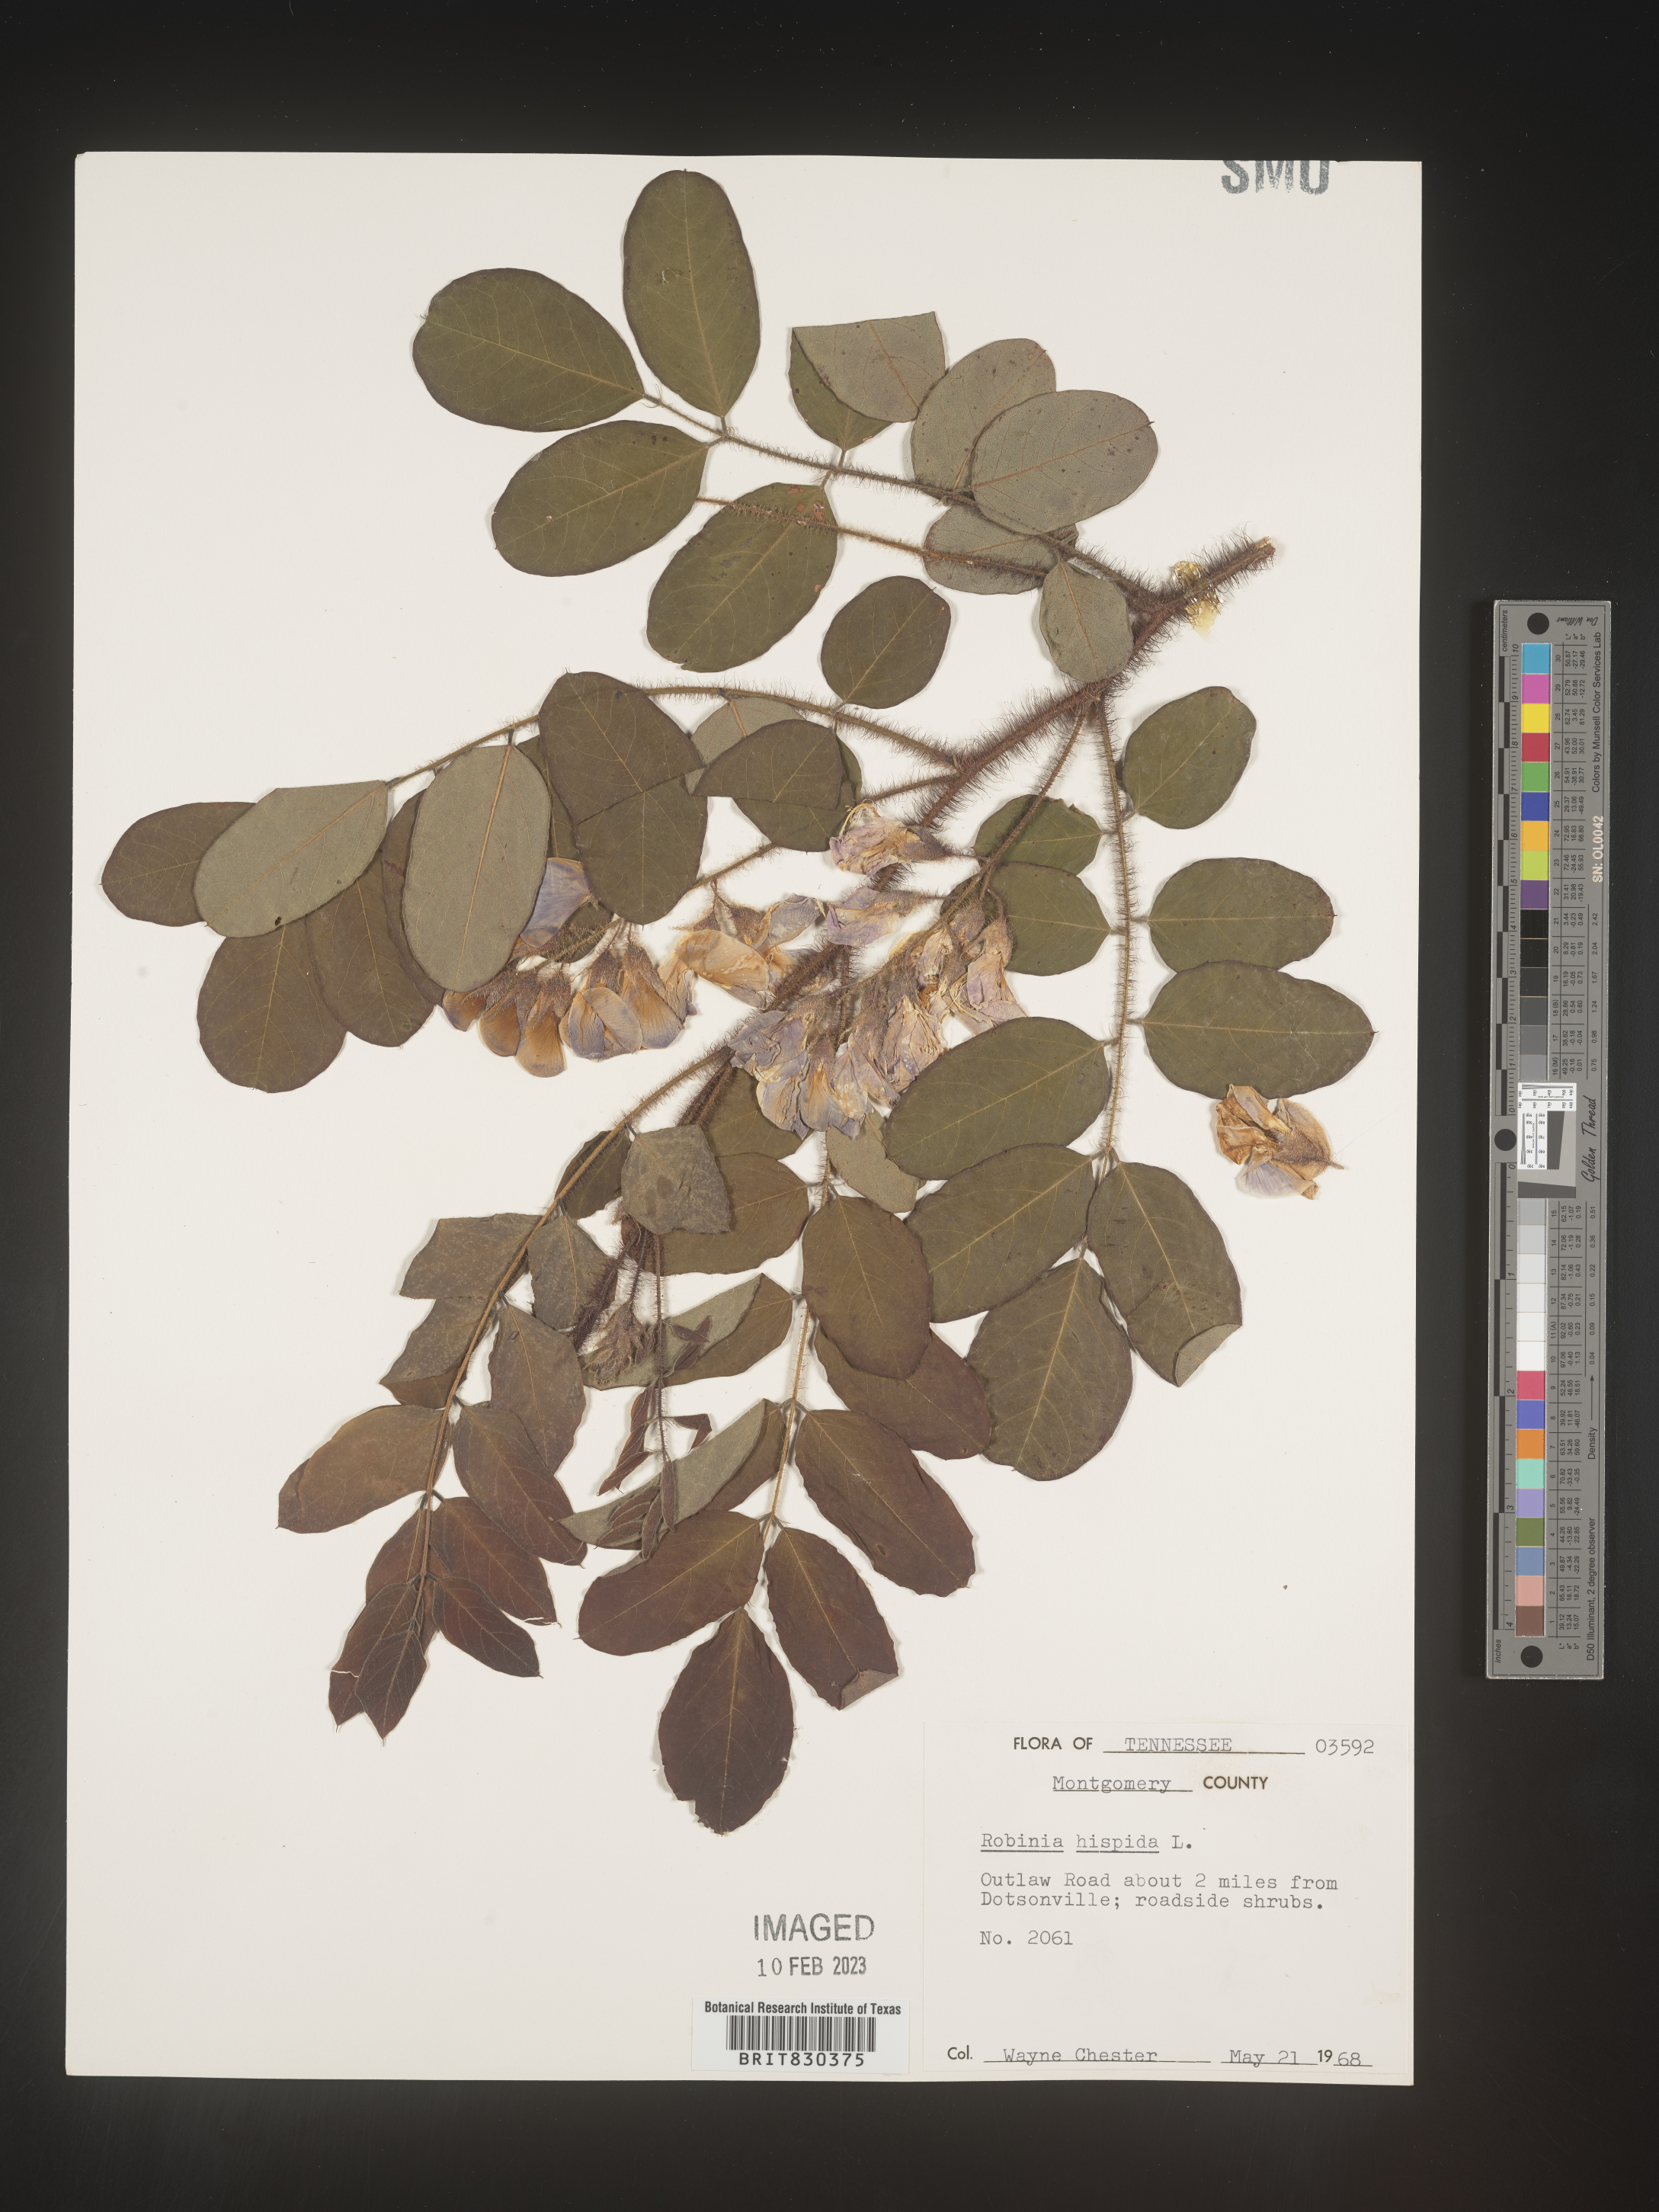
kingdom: Plantae
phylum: Tracheophyta
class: Magnoliopsida
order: Fabales
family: Fabaceae
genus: Robinia
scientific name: Robinia hispida
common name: Bristly locust
